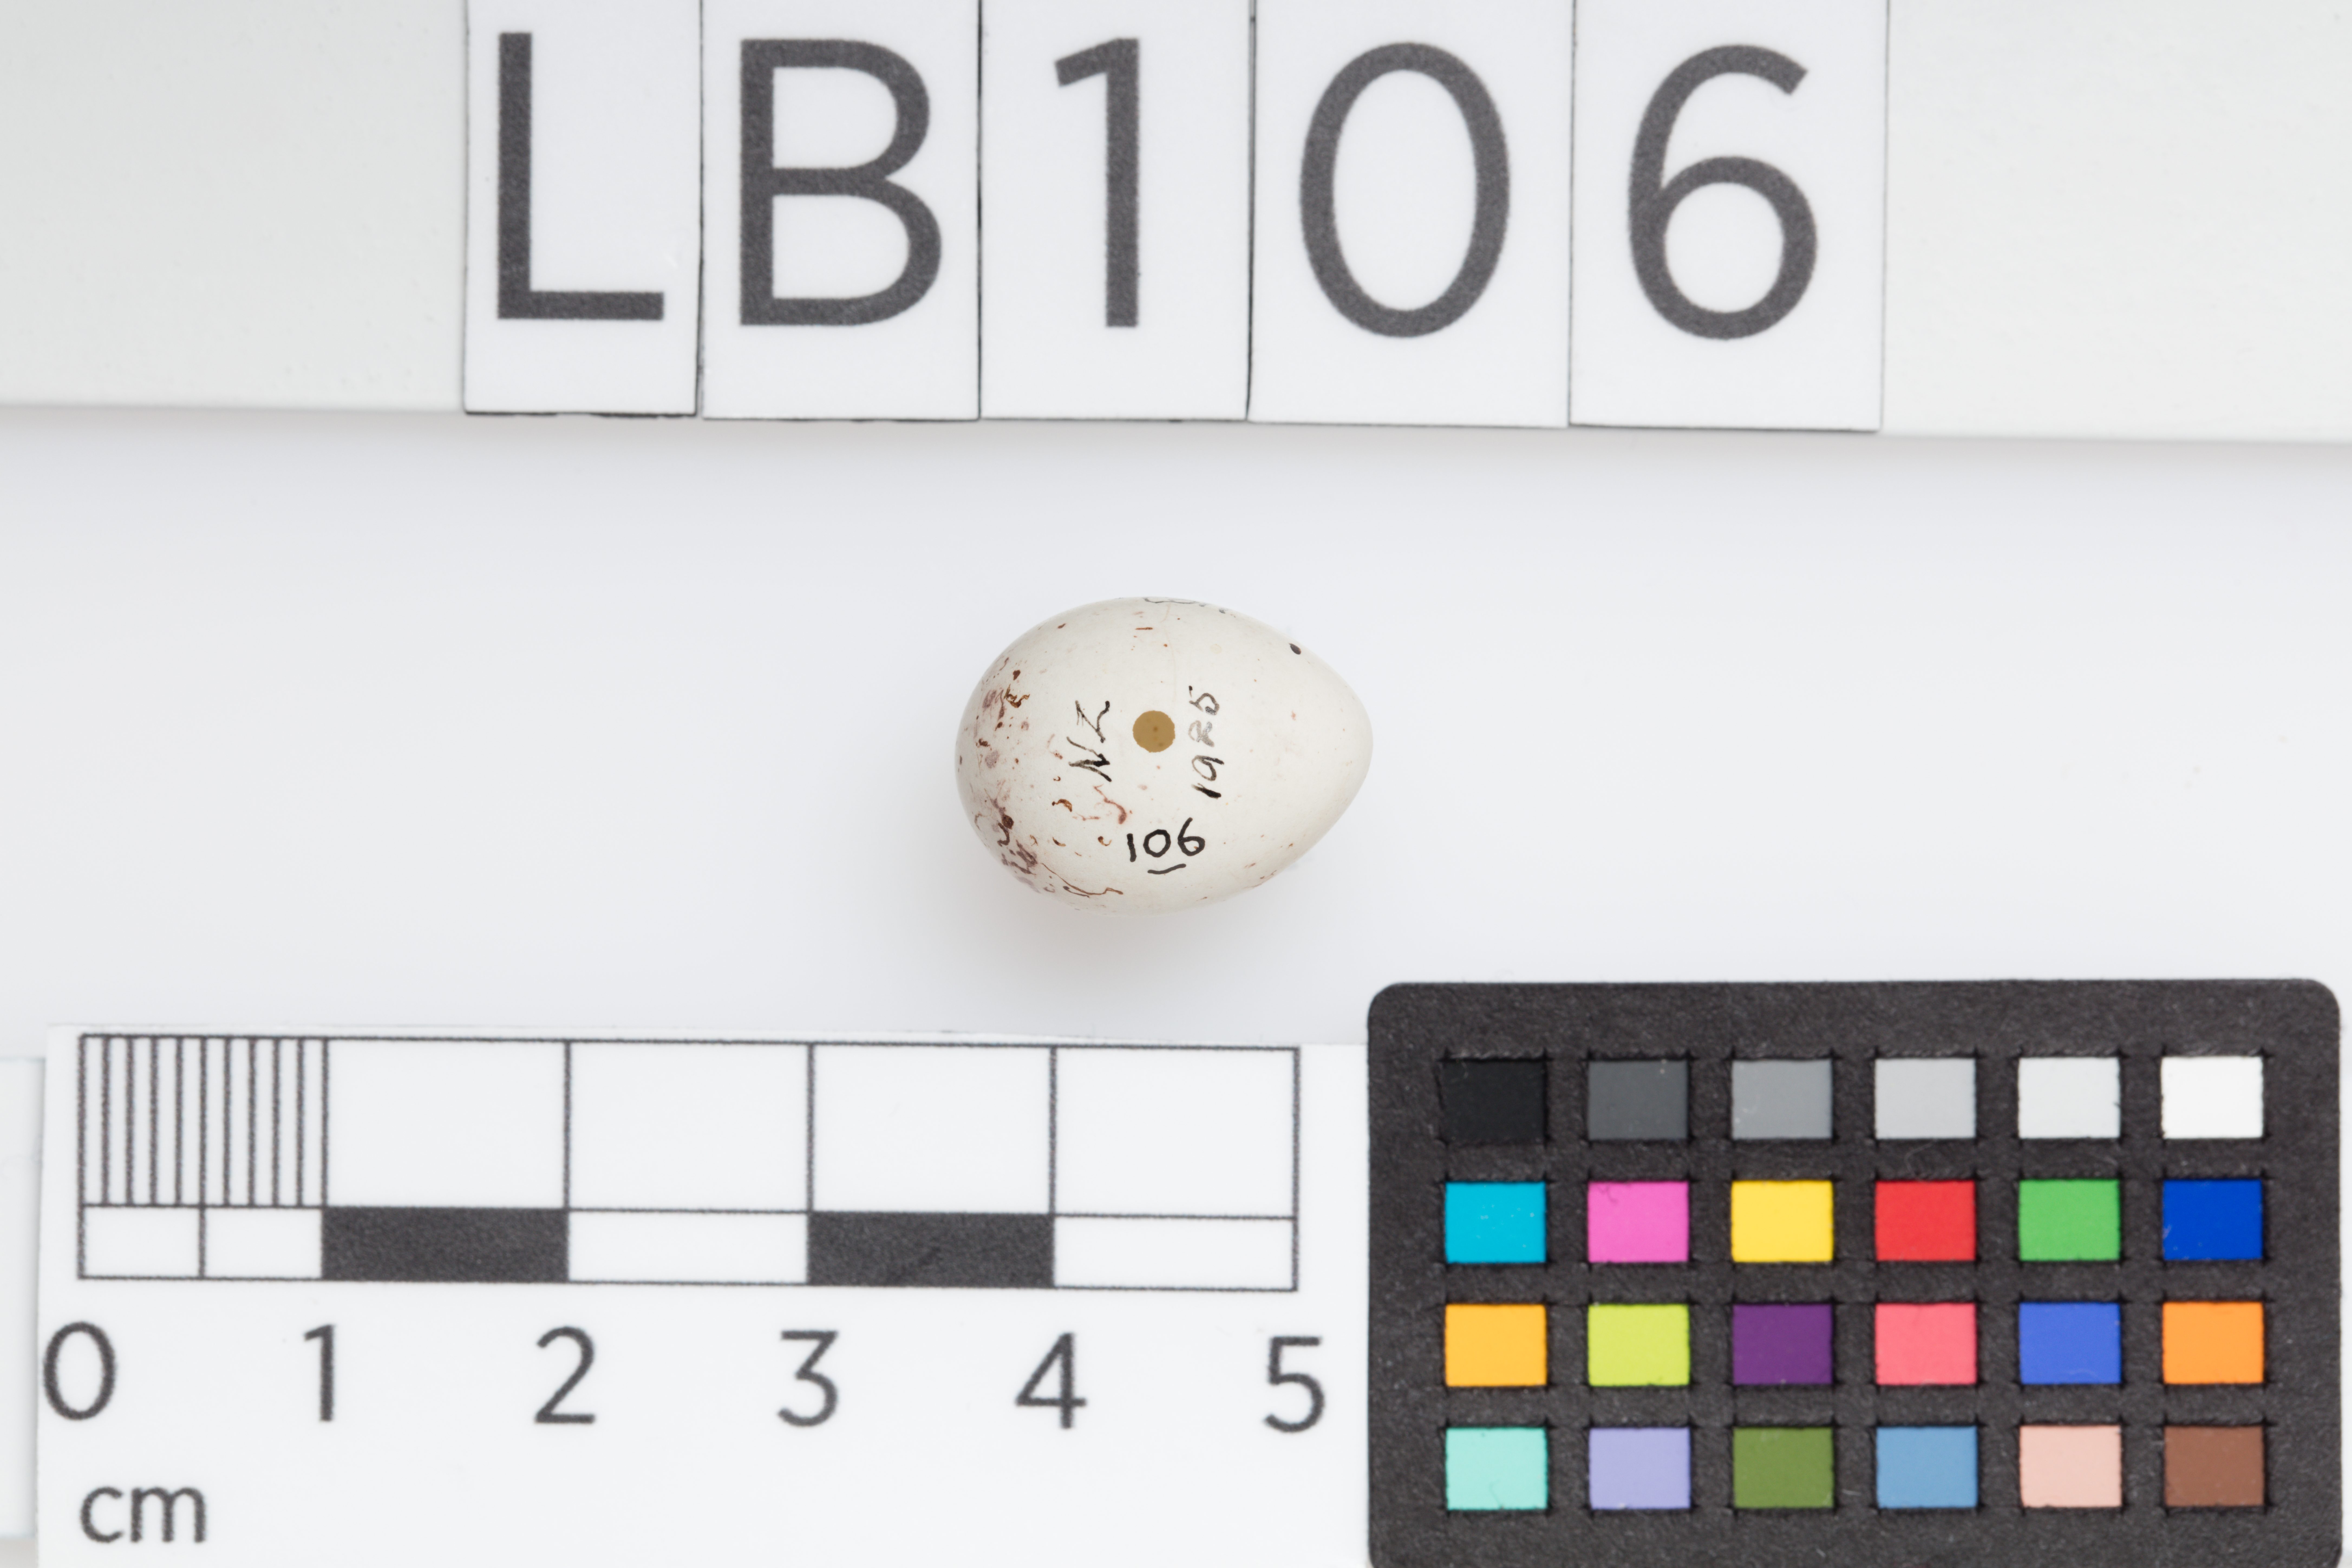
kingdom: Animalia
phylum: Chordata
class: Aves
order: Passeriformes
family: Fringillidae
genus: Carduelis
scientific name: Carduelis carduelis
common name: European goldfinch
